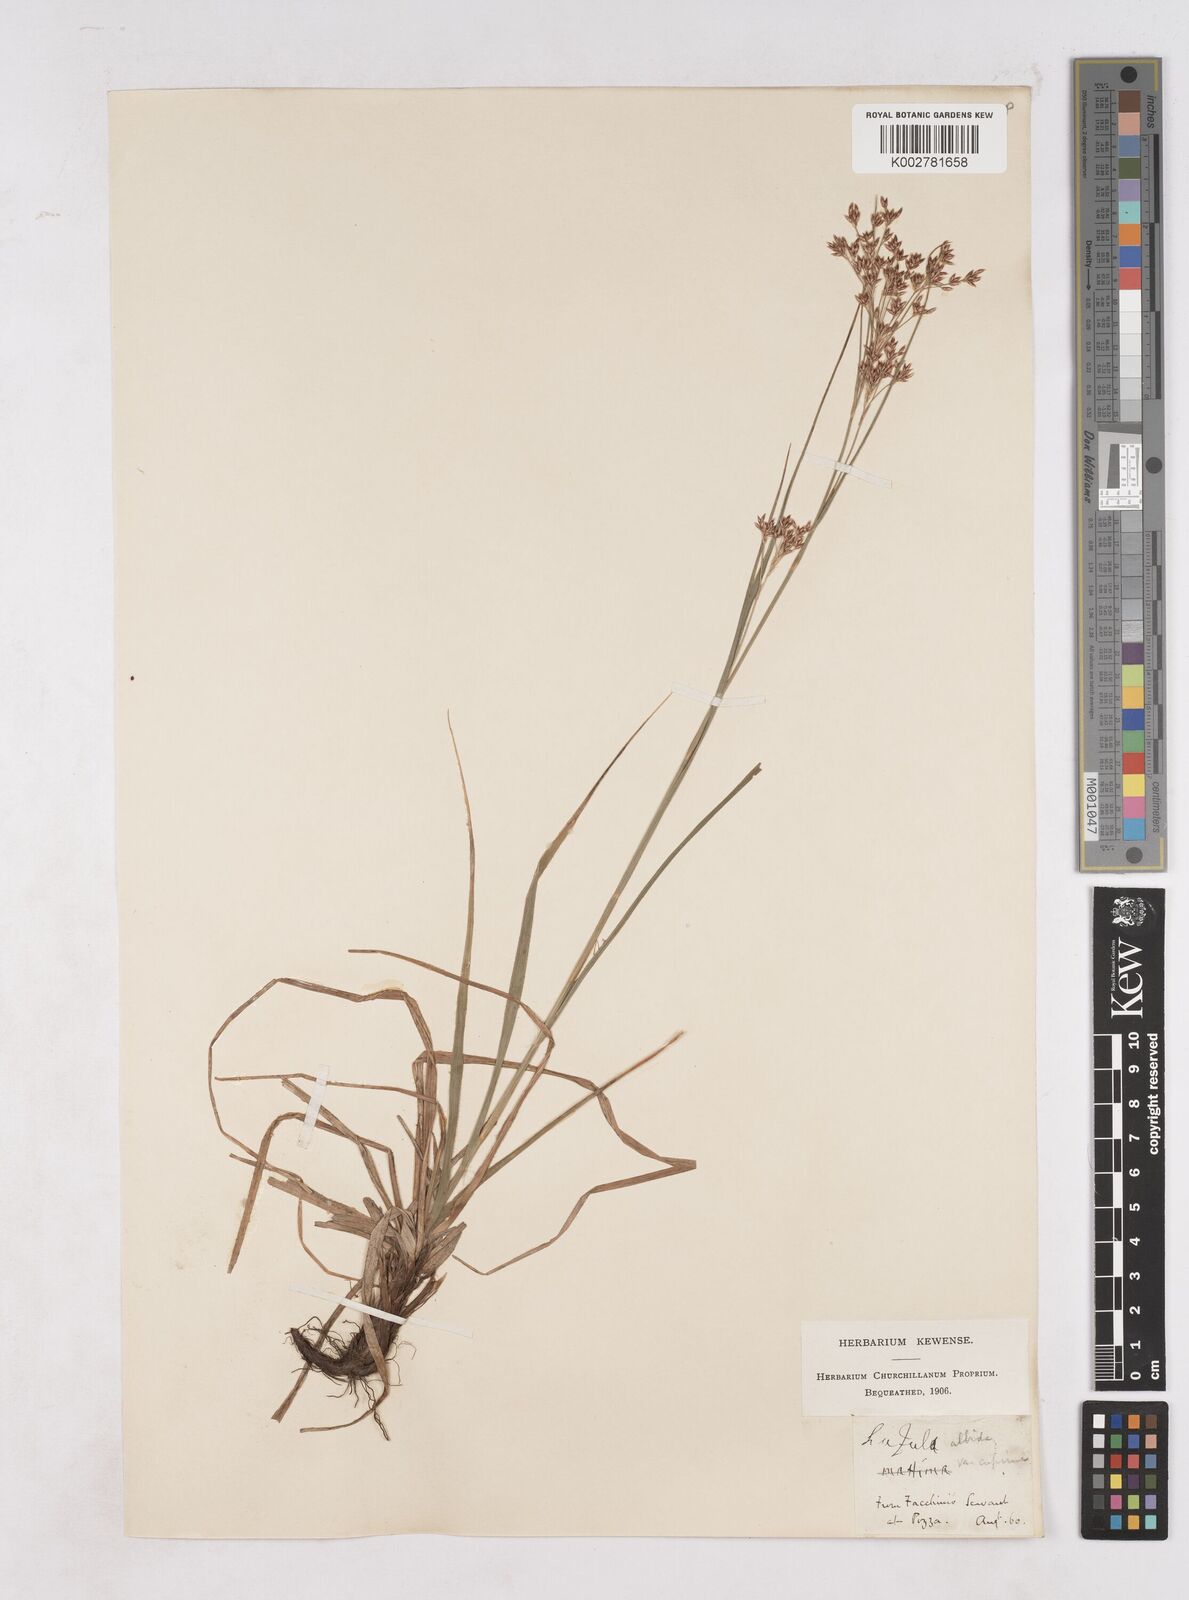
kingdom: Plantae
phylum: Tracheophyta
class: Liliopsida
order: Poales
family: Juncaceae
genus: Luzula
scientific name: Luzula luzuloides
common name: White wood-rush
